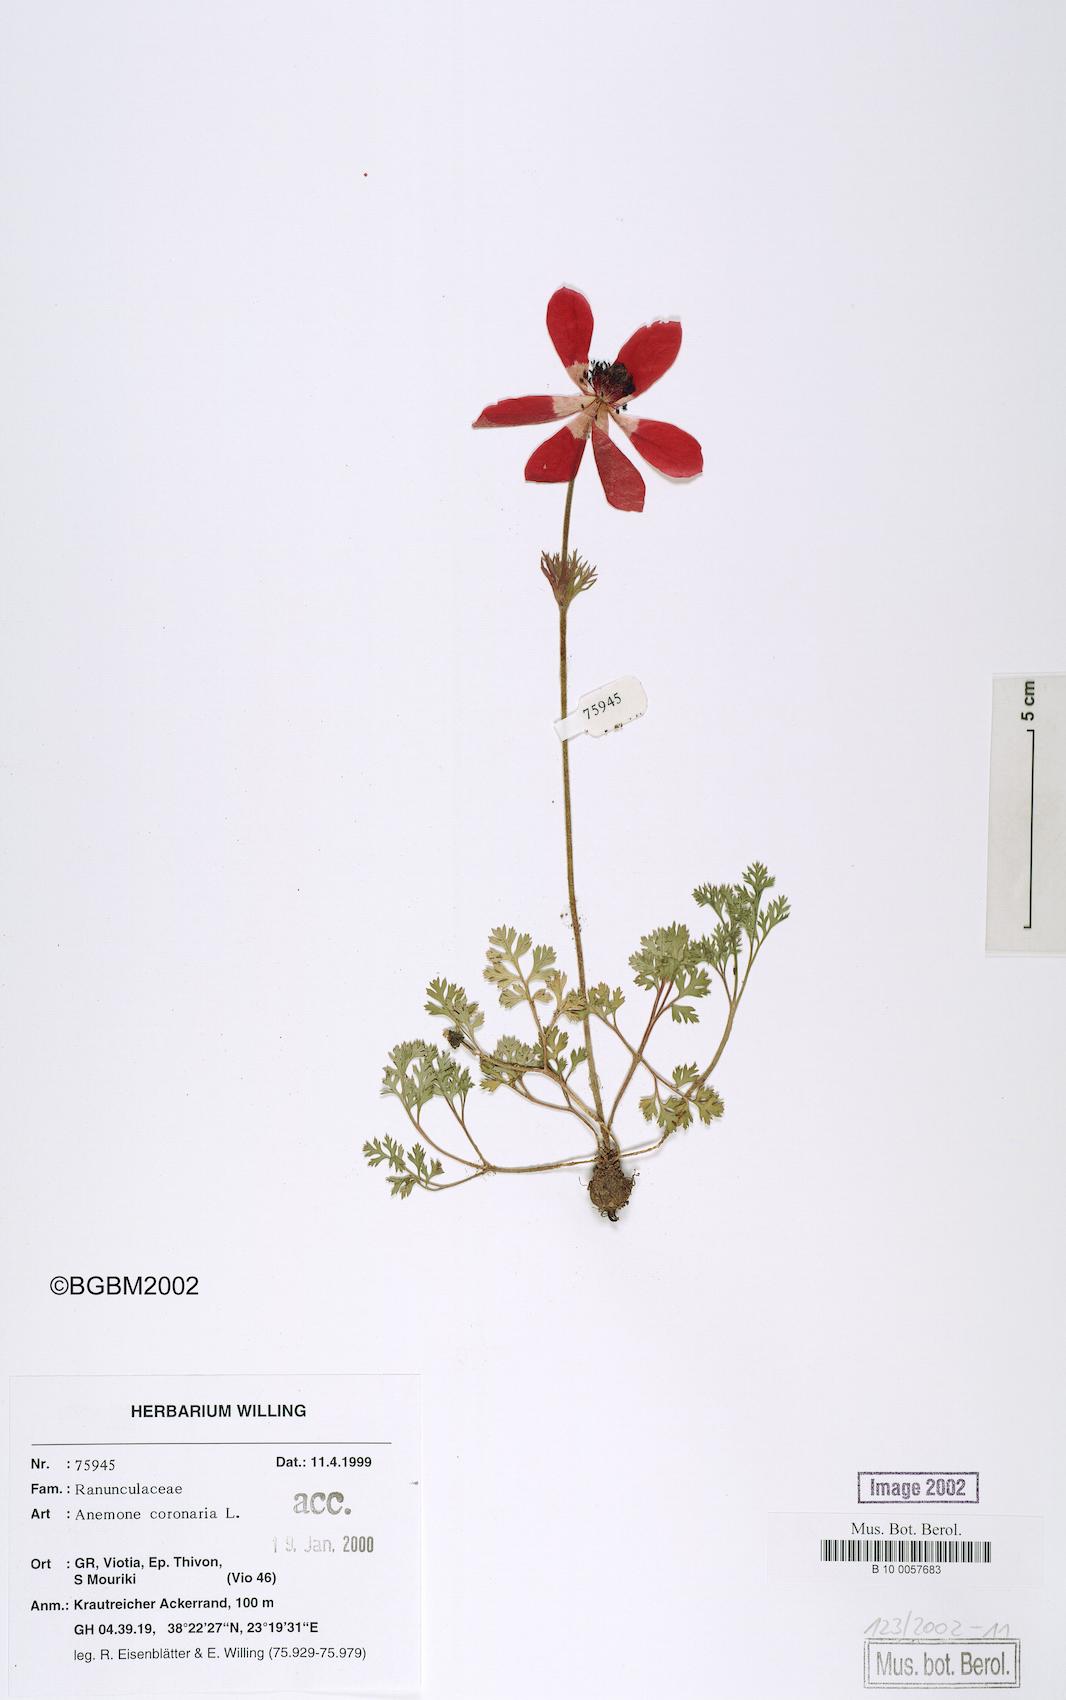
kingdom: Plantae
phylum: Tracheophyta
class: Magnoliopsida
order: Ranunculales
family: Ranunculaceae
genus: Anemone
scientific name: Anemone coronaria
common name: Poppy anemone
